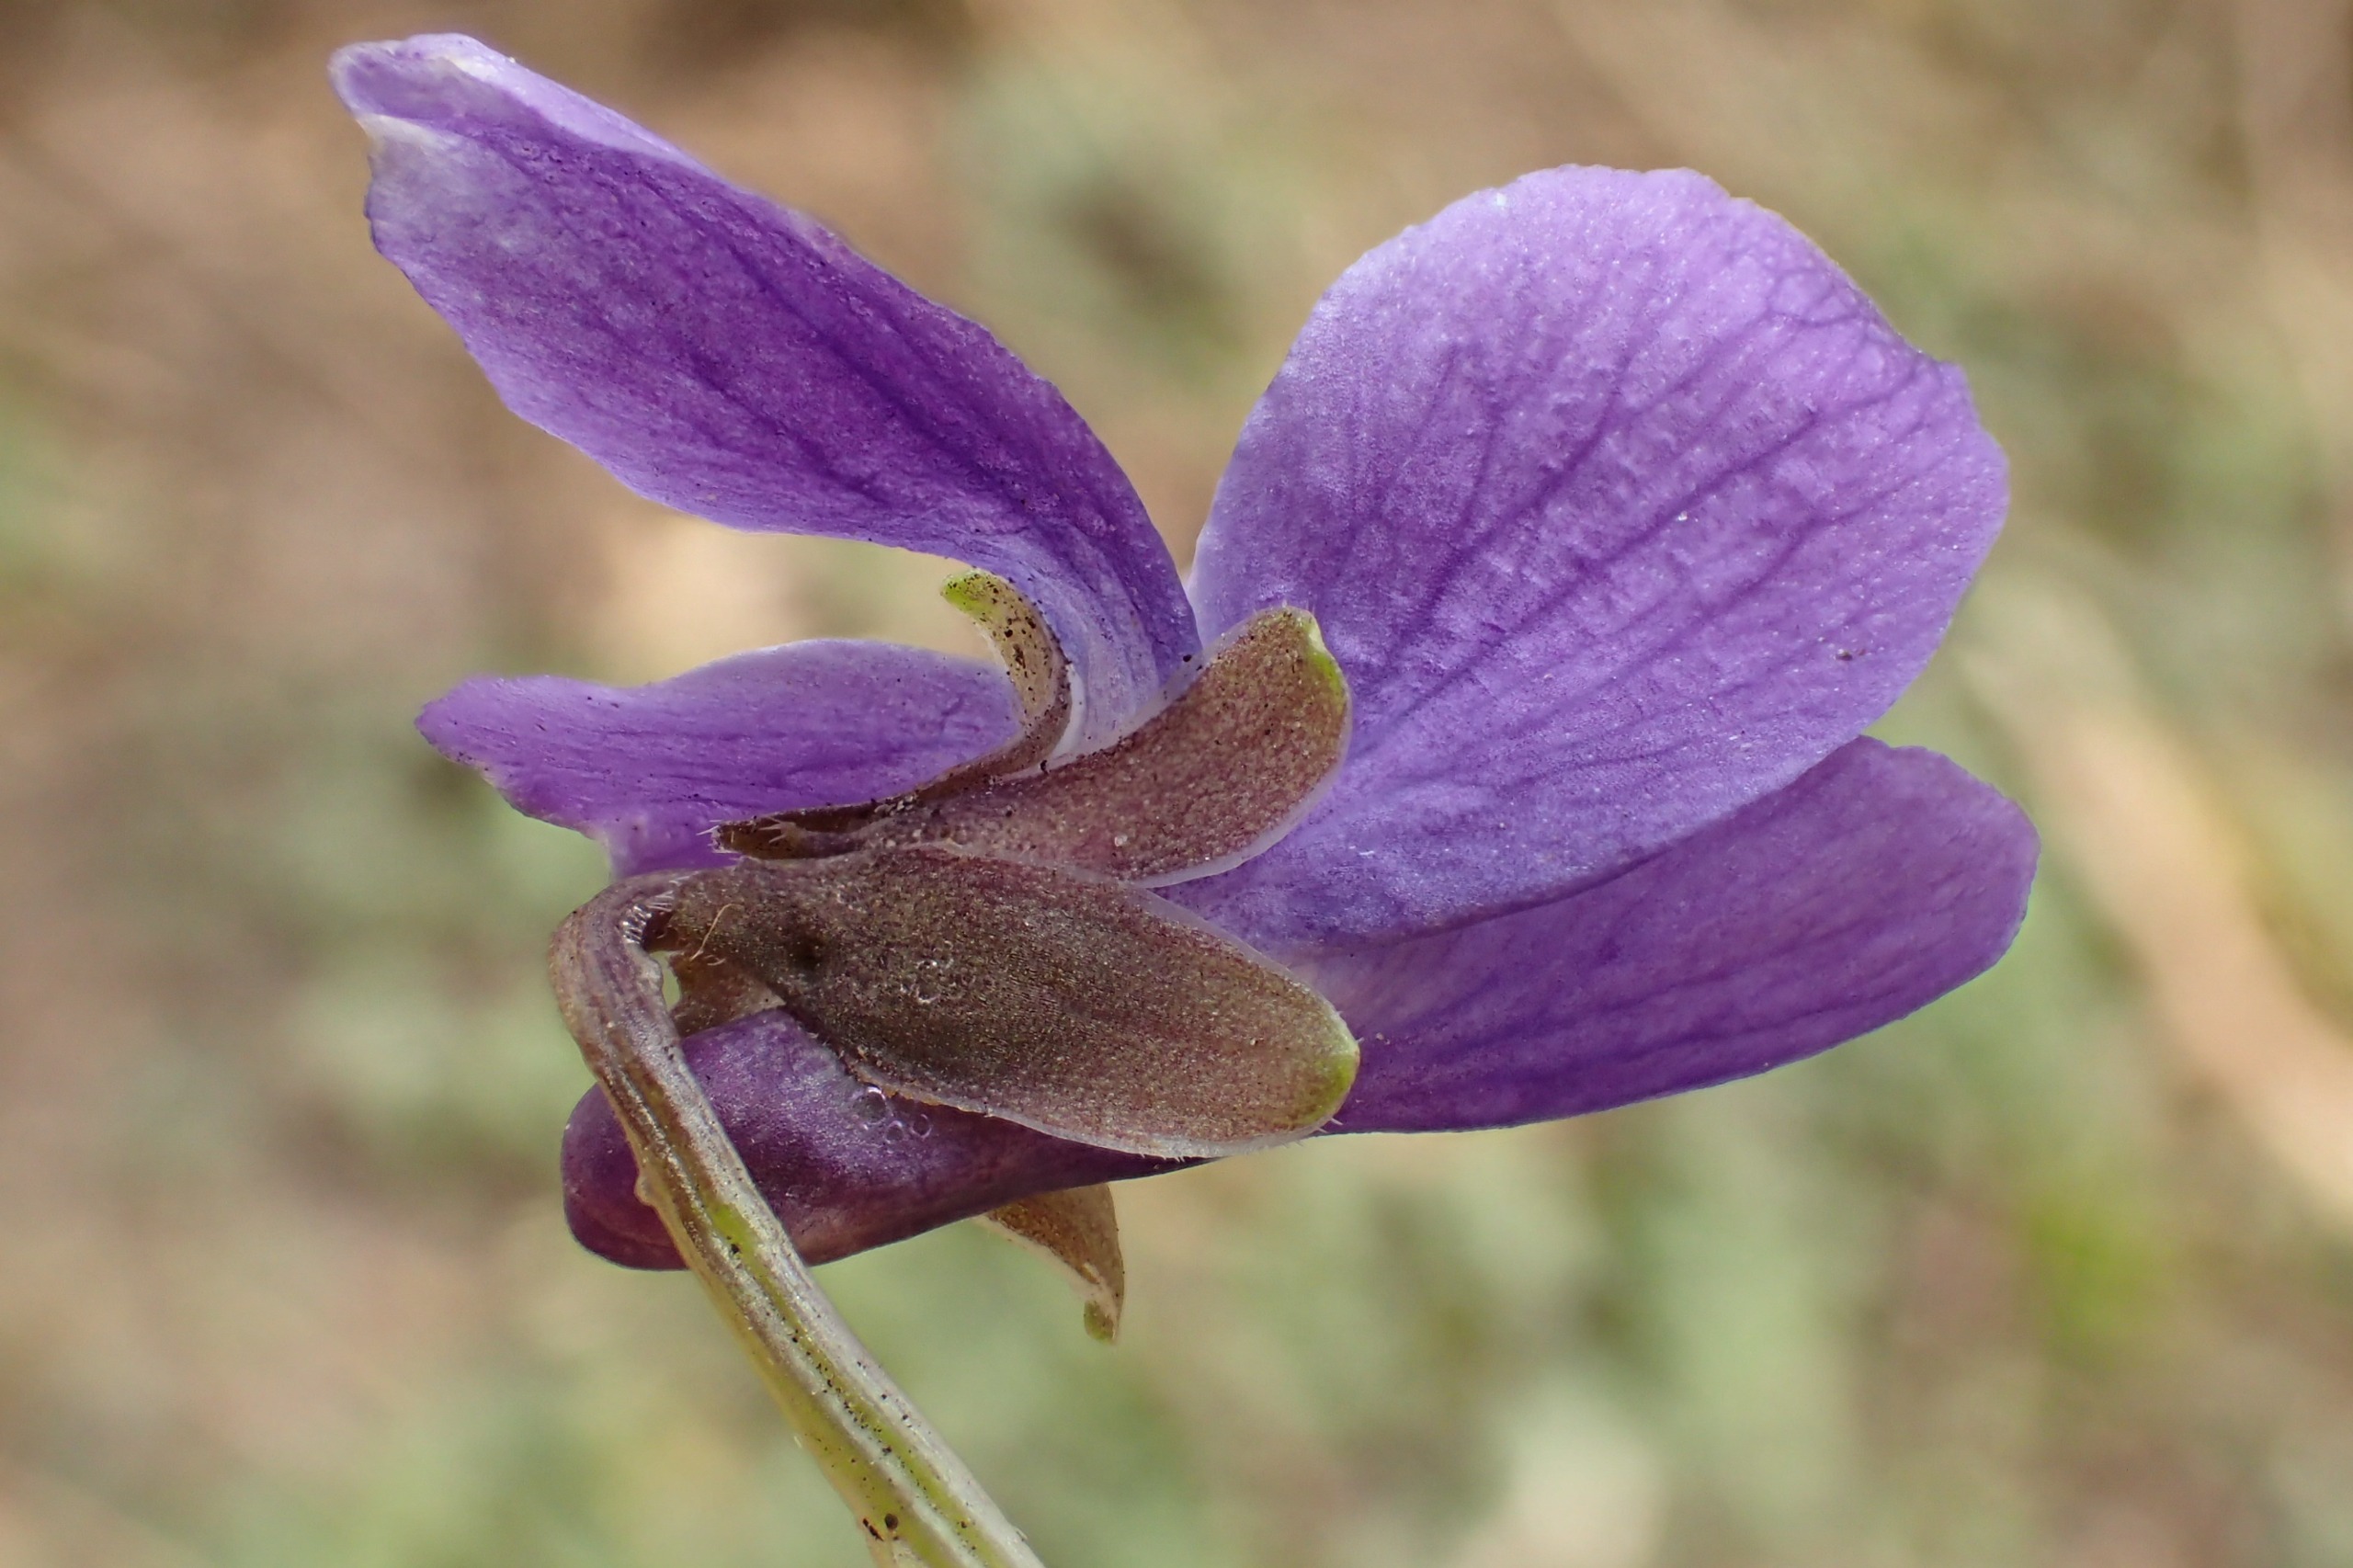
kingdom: Plantae
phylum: Tracheophyta
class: Magnoliopsida
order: Malpighiales
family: Violaceae
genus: Viola
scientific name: Viola odorata
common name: Marts-viol
